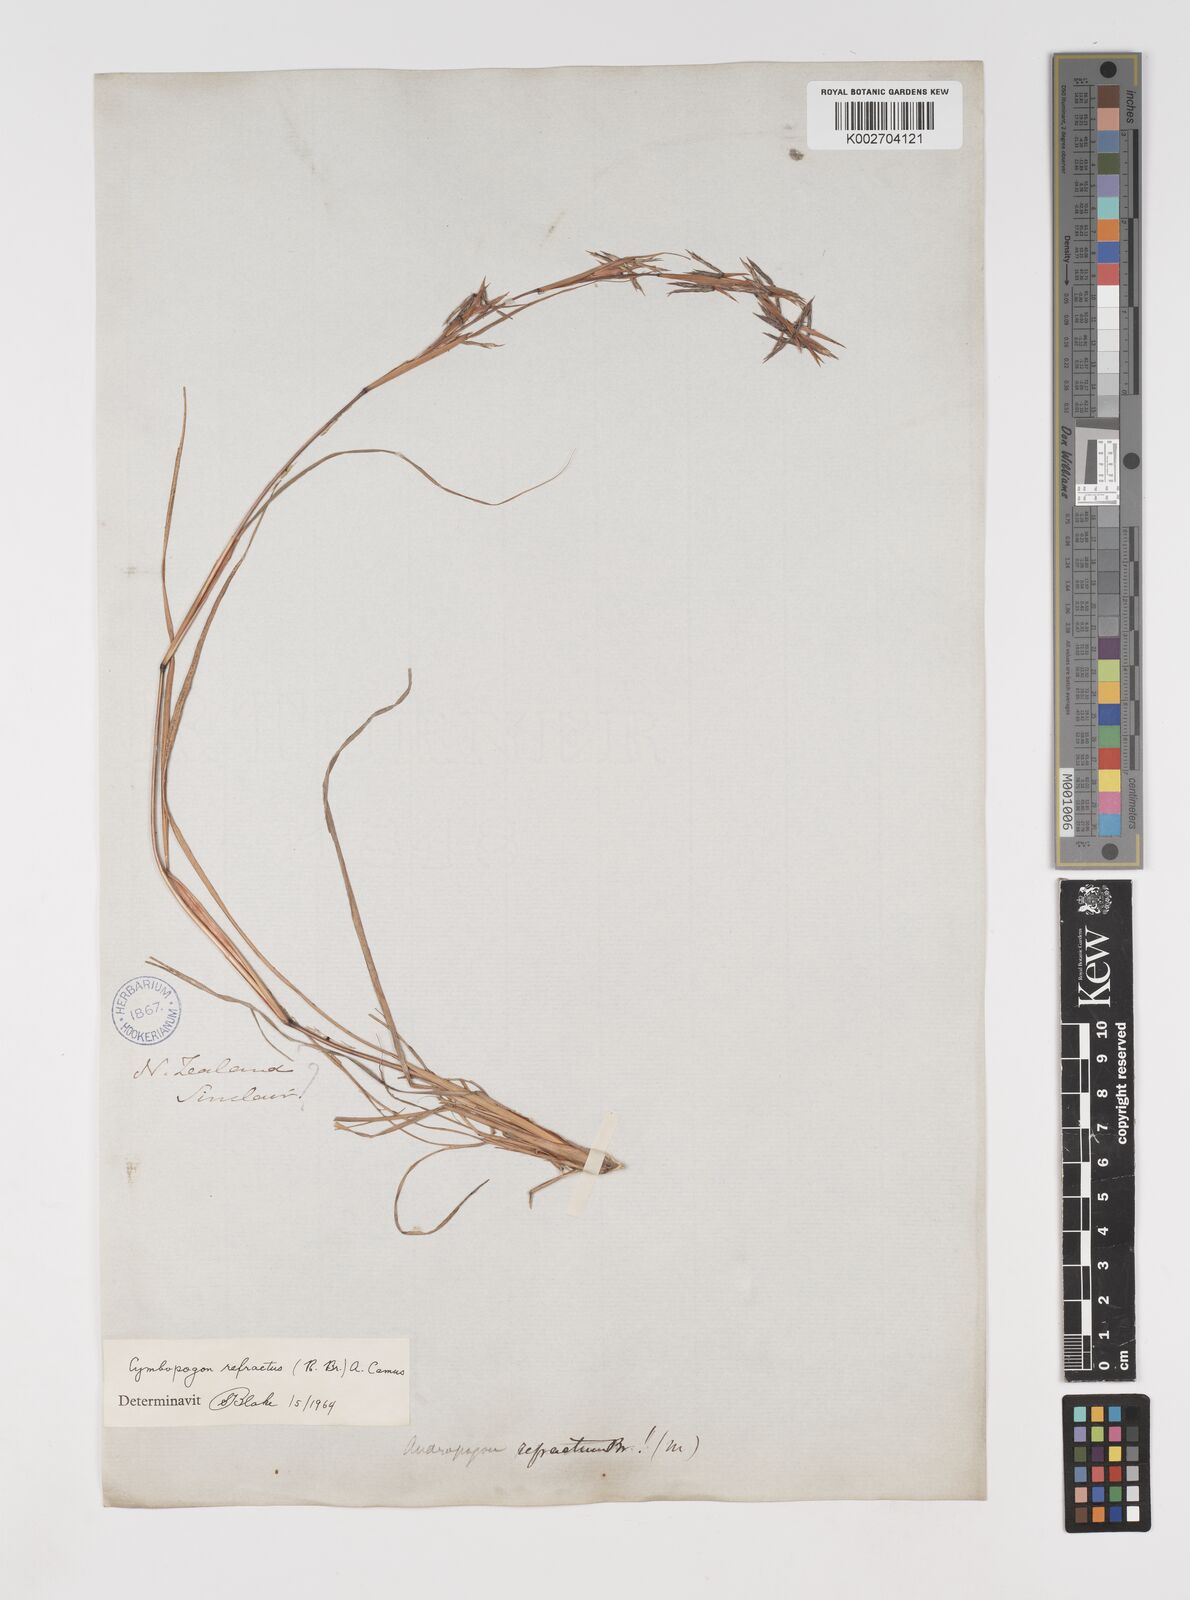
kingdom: Plantae
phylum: Tracheophyta
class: Liliopsida
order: Poales
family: Poaceae
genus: Cymbopogon
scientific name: Cymbopogon refractus
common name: Barbwire grass
